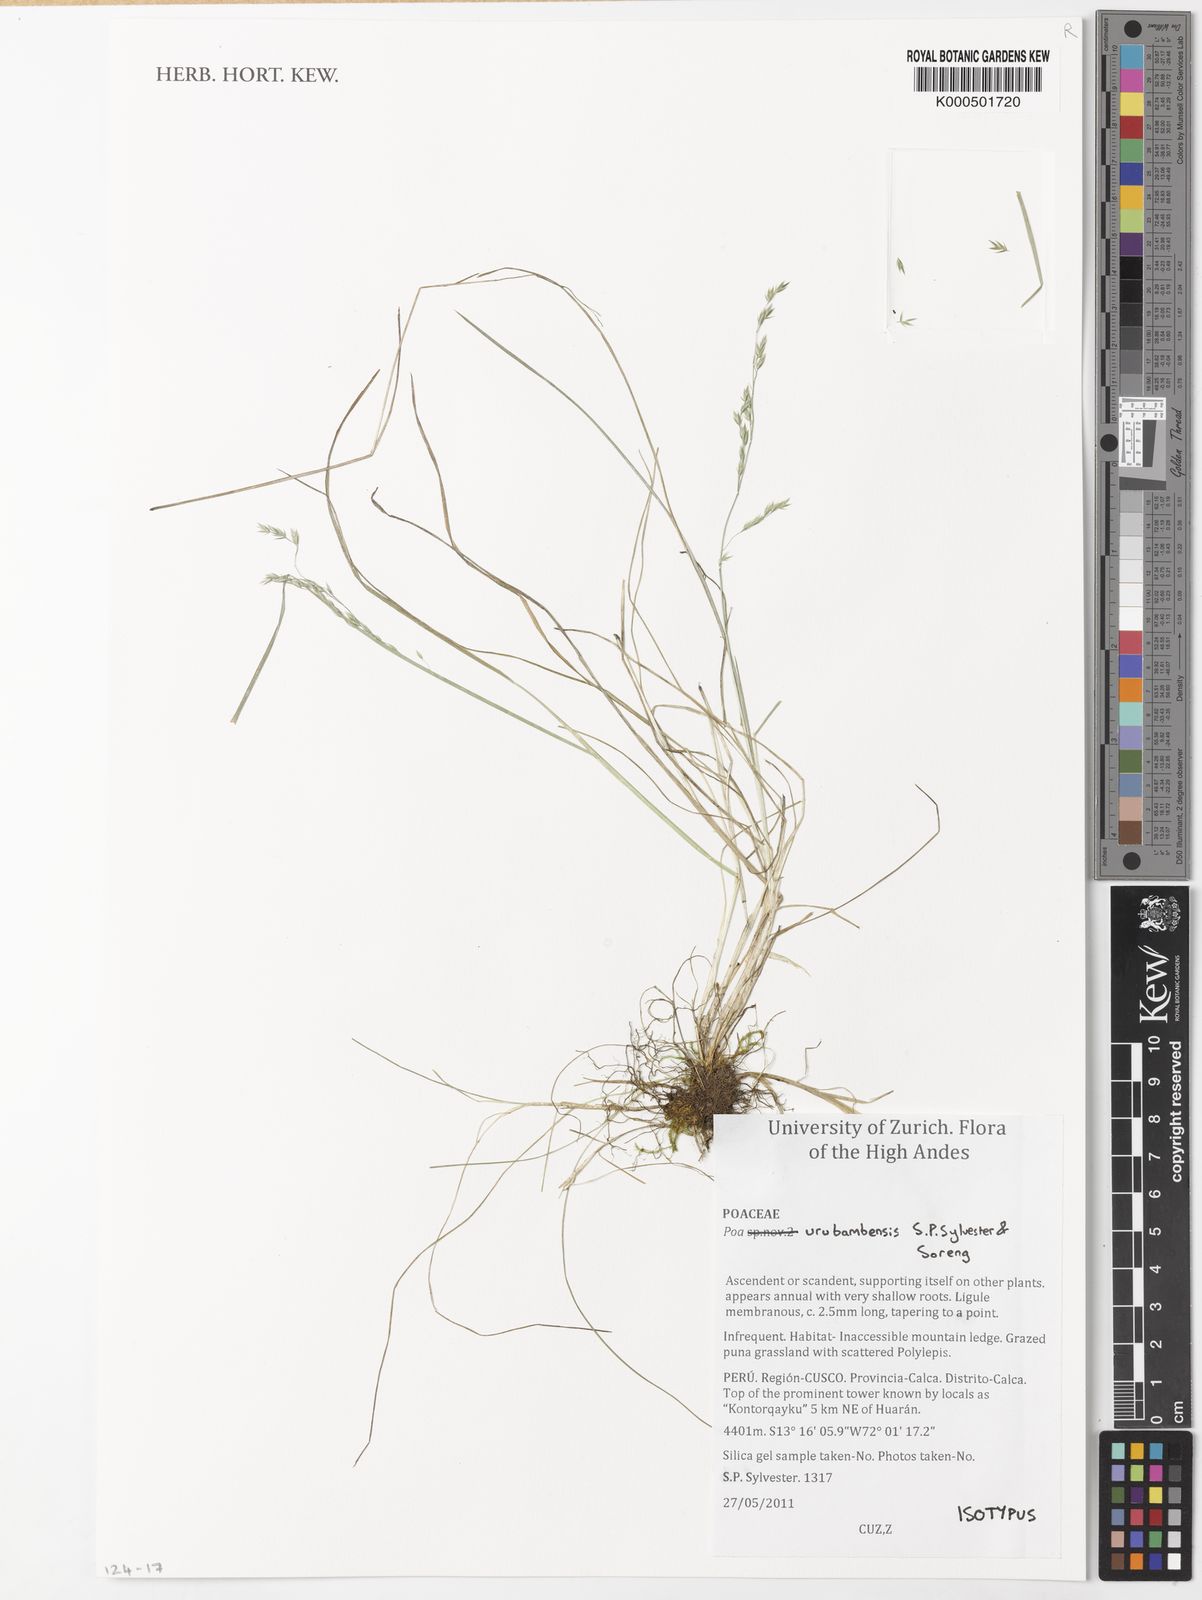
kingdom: Plantae
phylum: Tracheophyta
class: Liliopsida
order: Poales
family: Poaceae
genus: Poa
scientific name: Poa urubambensis
